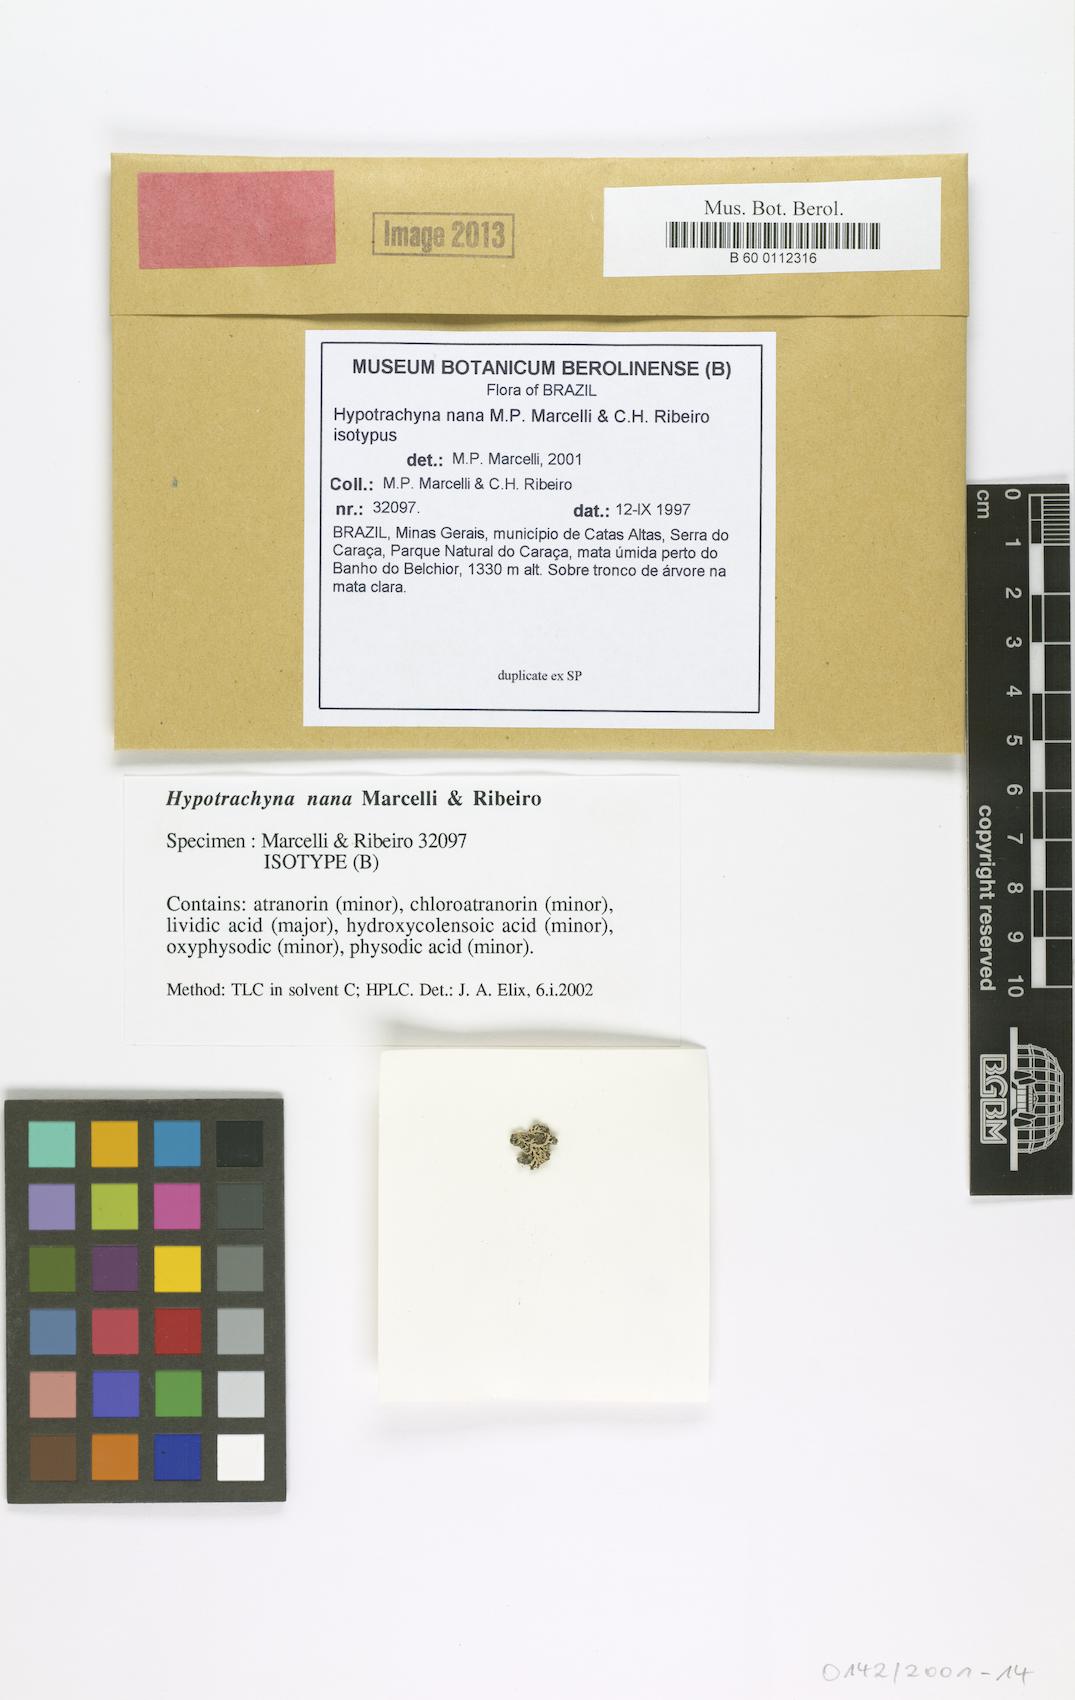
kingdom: Fungi
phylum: Ascomycota
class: Lecanoromycetes
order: Lecanorales
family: Parmeliaceae
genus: Hypotrachyna
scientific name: Hypotrachyna nana
